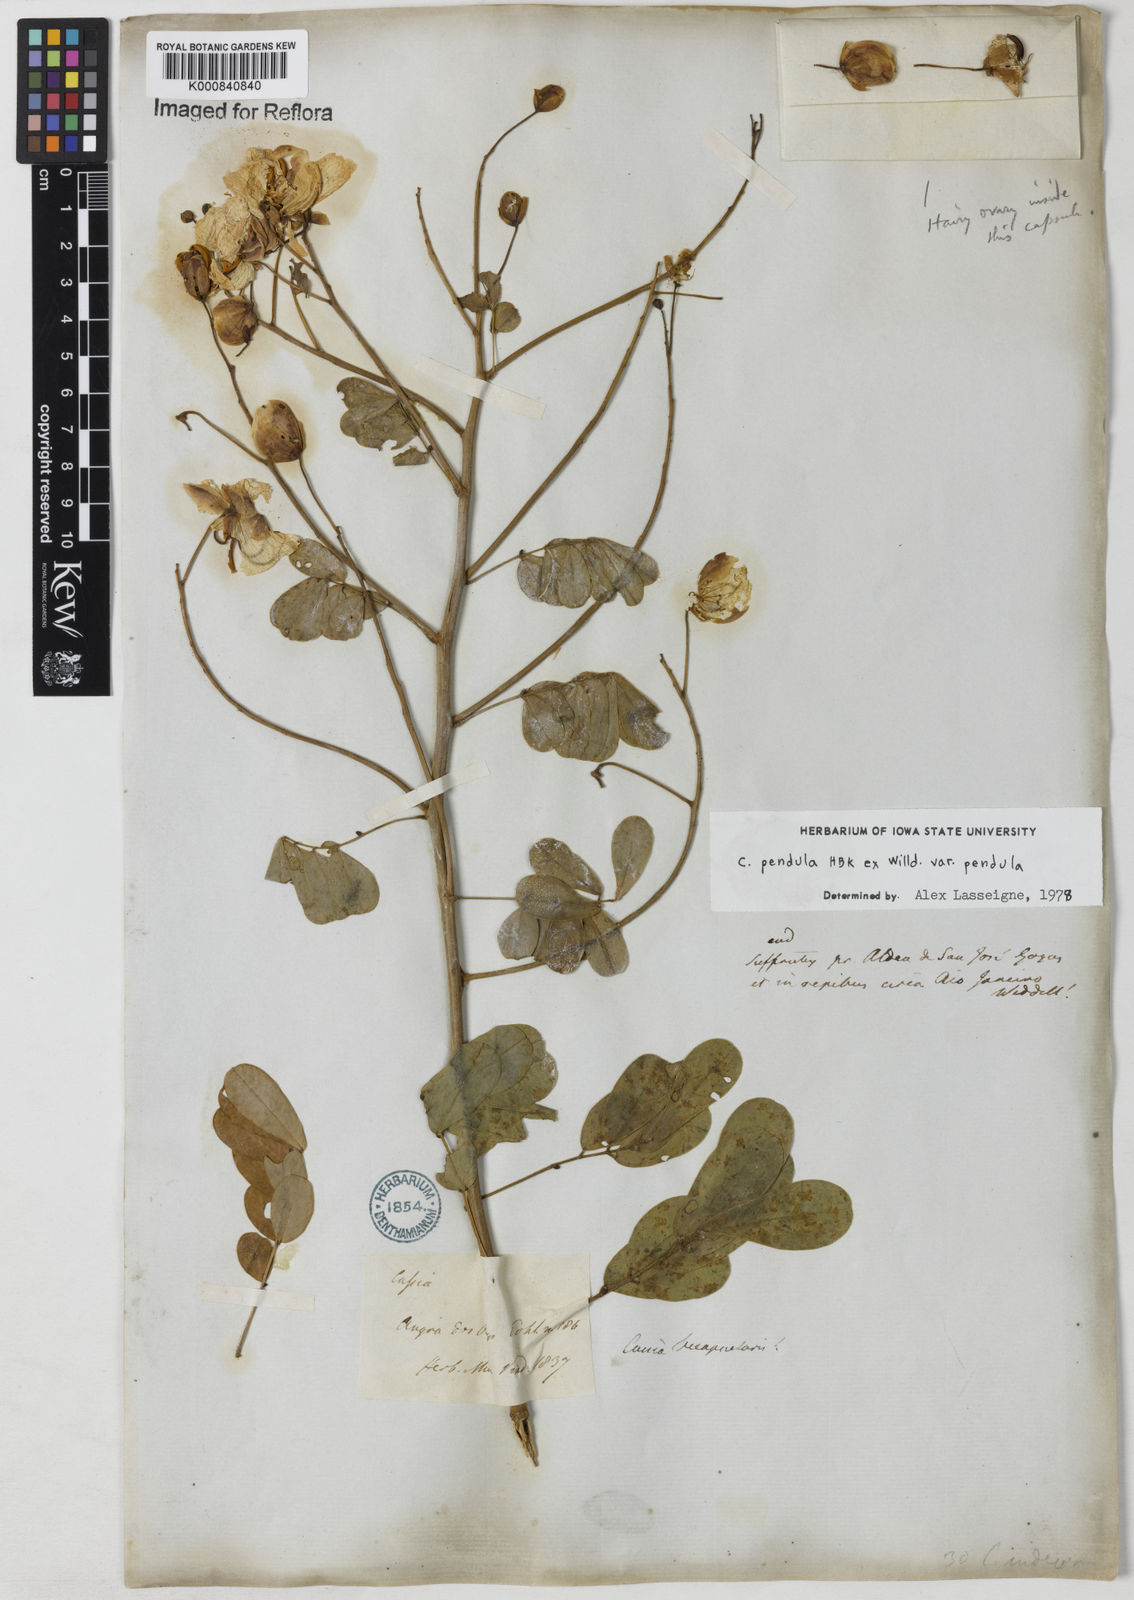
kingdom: Plantae
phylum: Tracheophyta
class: Magnoliopsida
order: Fabales
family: Fabaceae
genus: Senna
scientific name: Senna pendula
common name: Easter cassia
